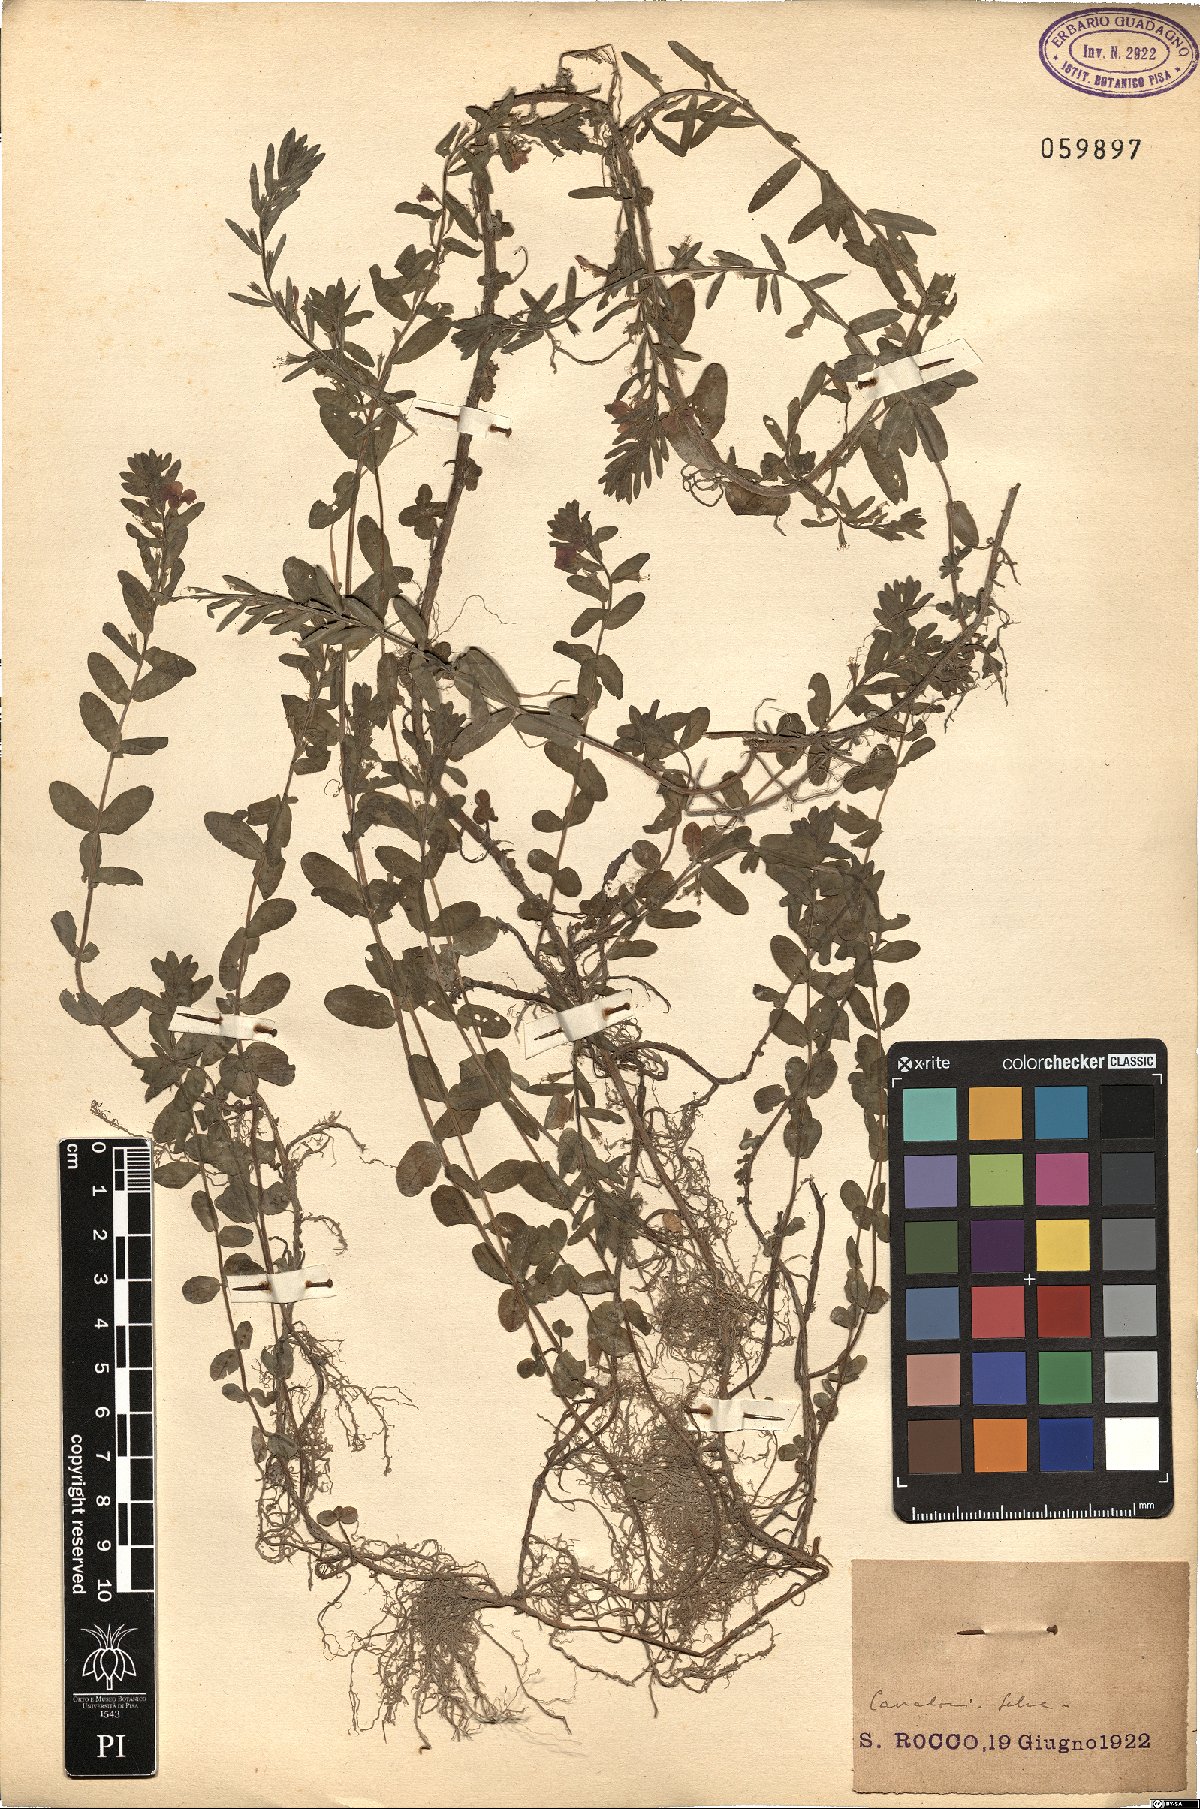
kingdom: Plantae
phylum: Tracheophyta
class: Magnoliopsida
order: Myrtales
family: Lythraceae
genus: Lythrum
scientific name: Lythrum hyssopifolia
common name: Grass-poly
